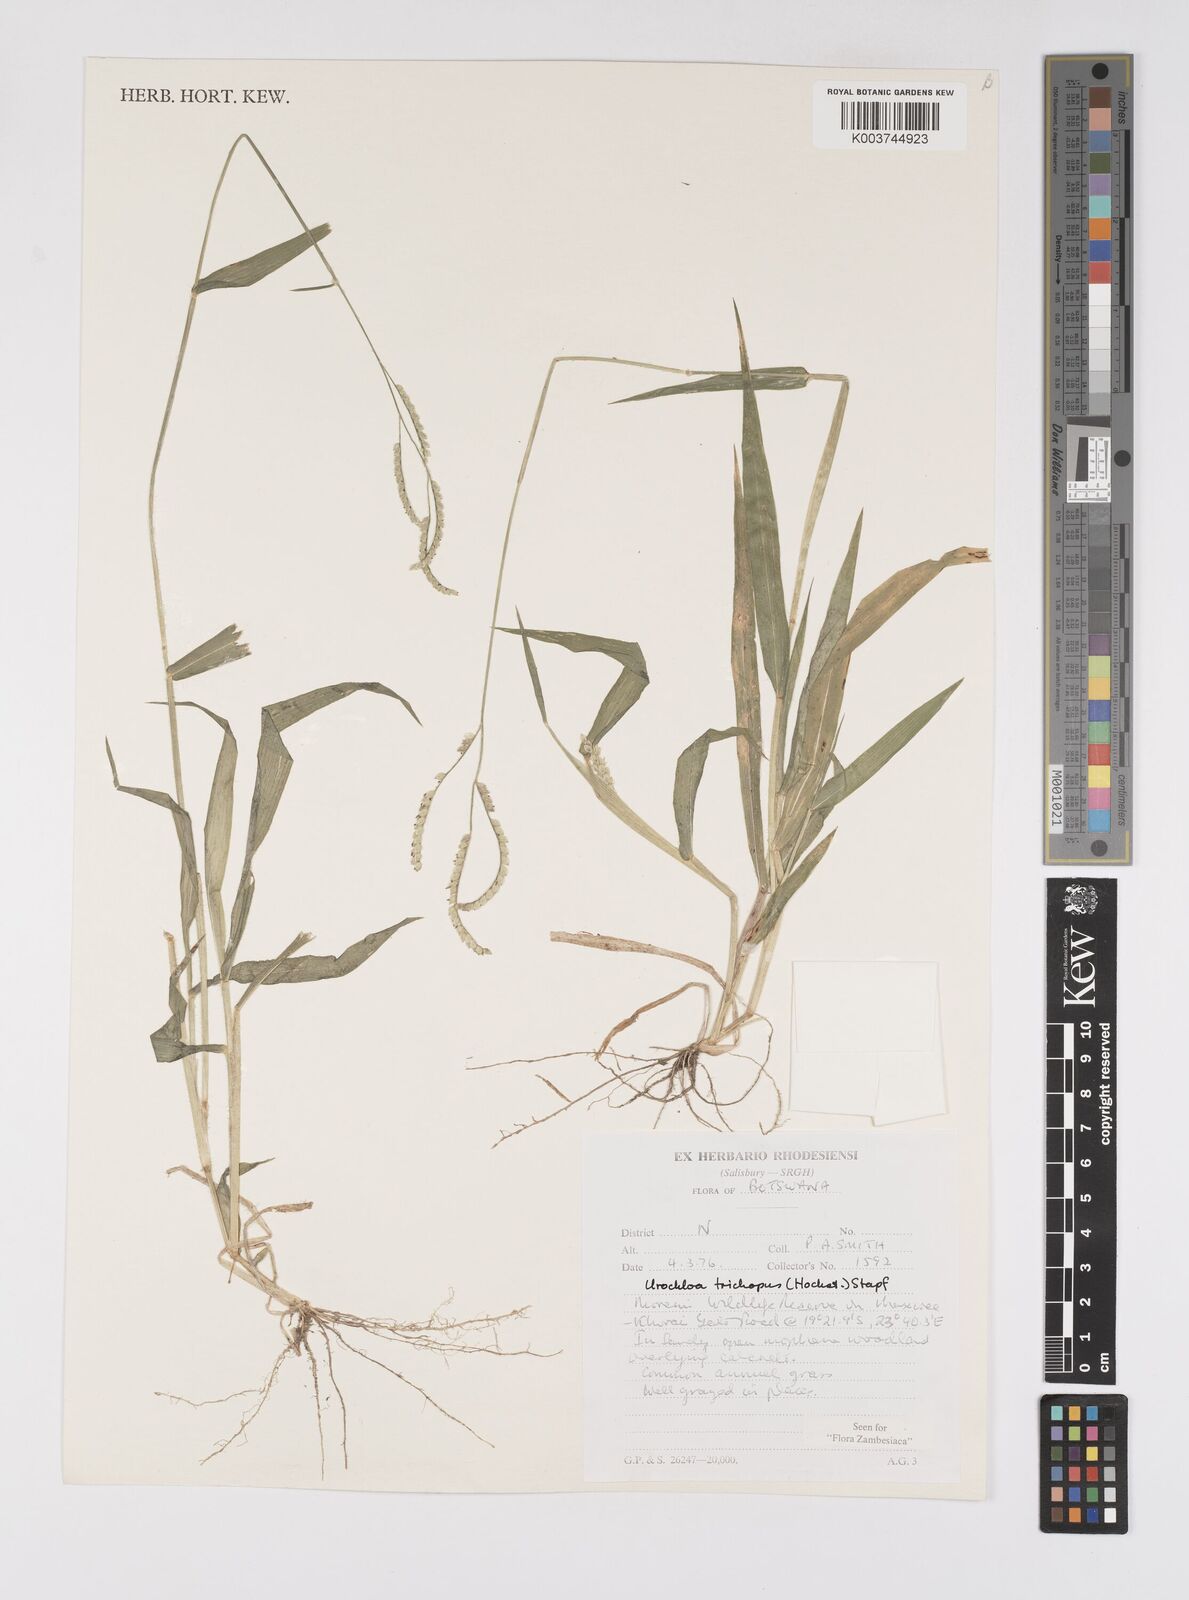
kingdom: Plantae
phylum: Tracheophyta
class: Liliopsida
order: Poales
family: Poaceae
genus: Urochloa
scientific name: Urochloa trichopus
